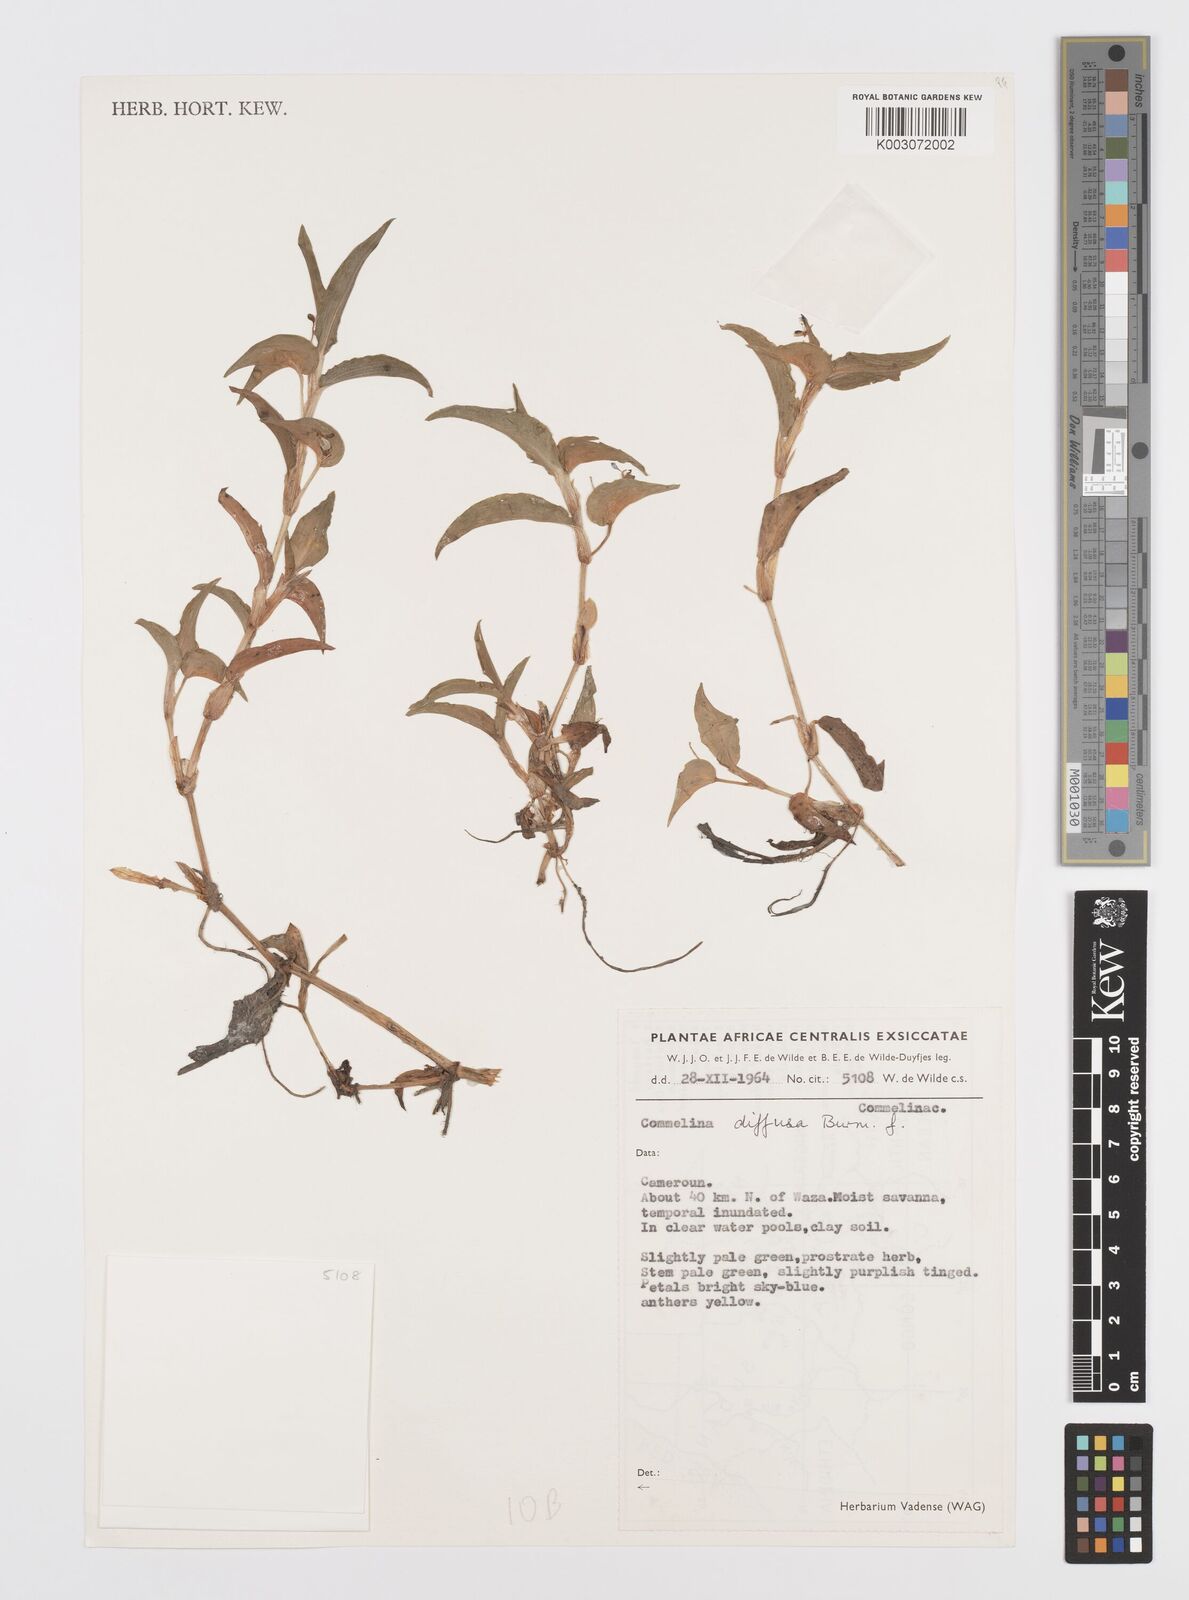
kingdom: Plantae
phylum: Tracheophyta
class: Liliopsida
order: Commelinales
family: Commelinaceae
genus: Commelina
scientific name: Commelina diffusa
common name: Climbing dayflower
